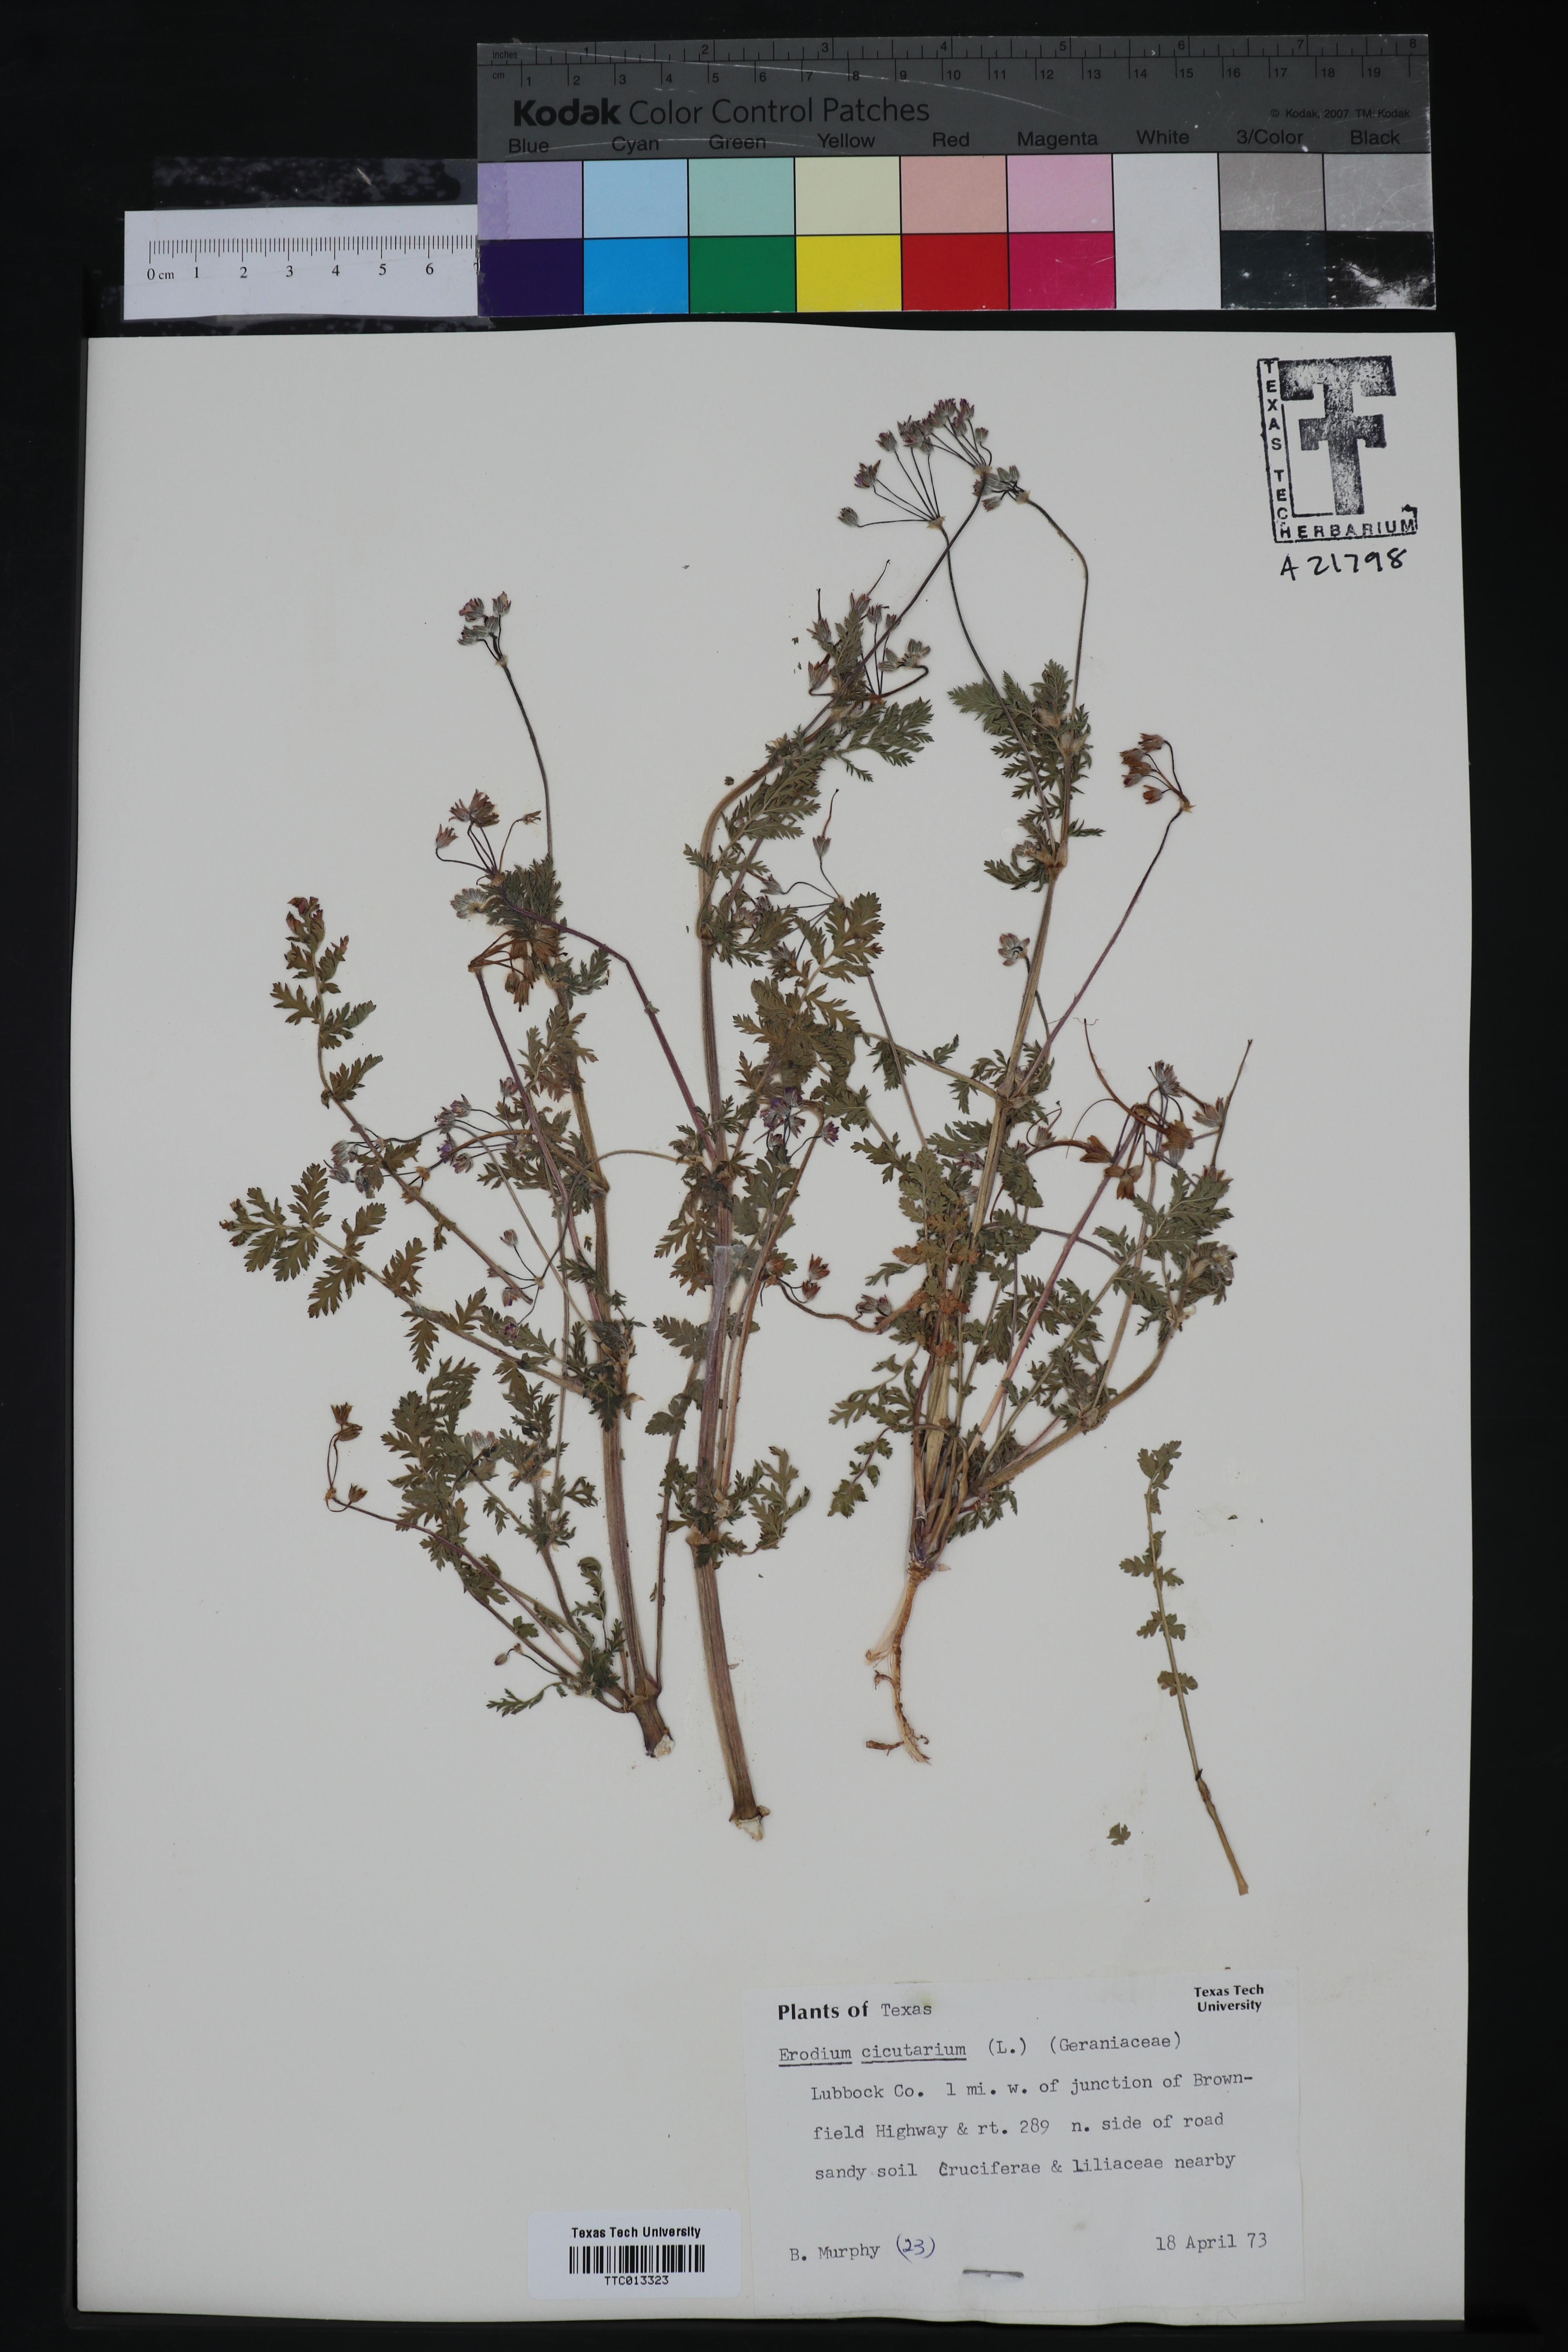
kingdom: Plantae
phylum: Tracheophyta
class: Magnoliopsida
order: Geraniales
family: Geraniaceae
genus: Erodium
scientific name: Erodium cicutarium
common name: Common stork's-bill
